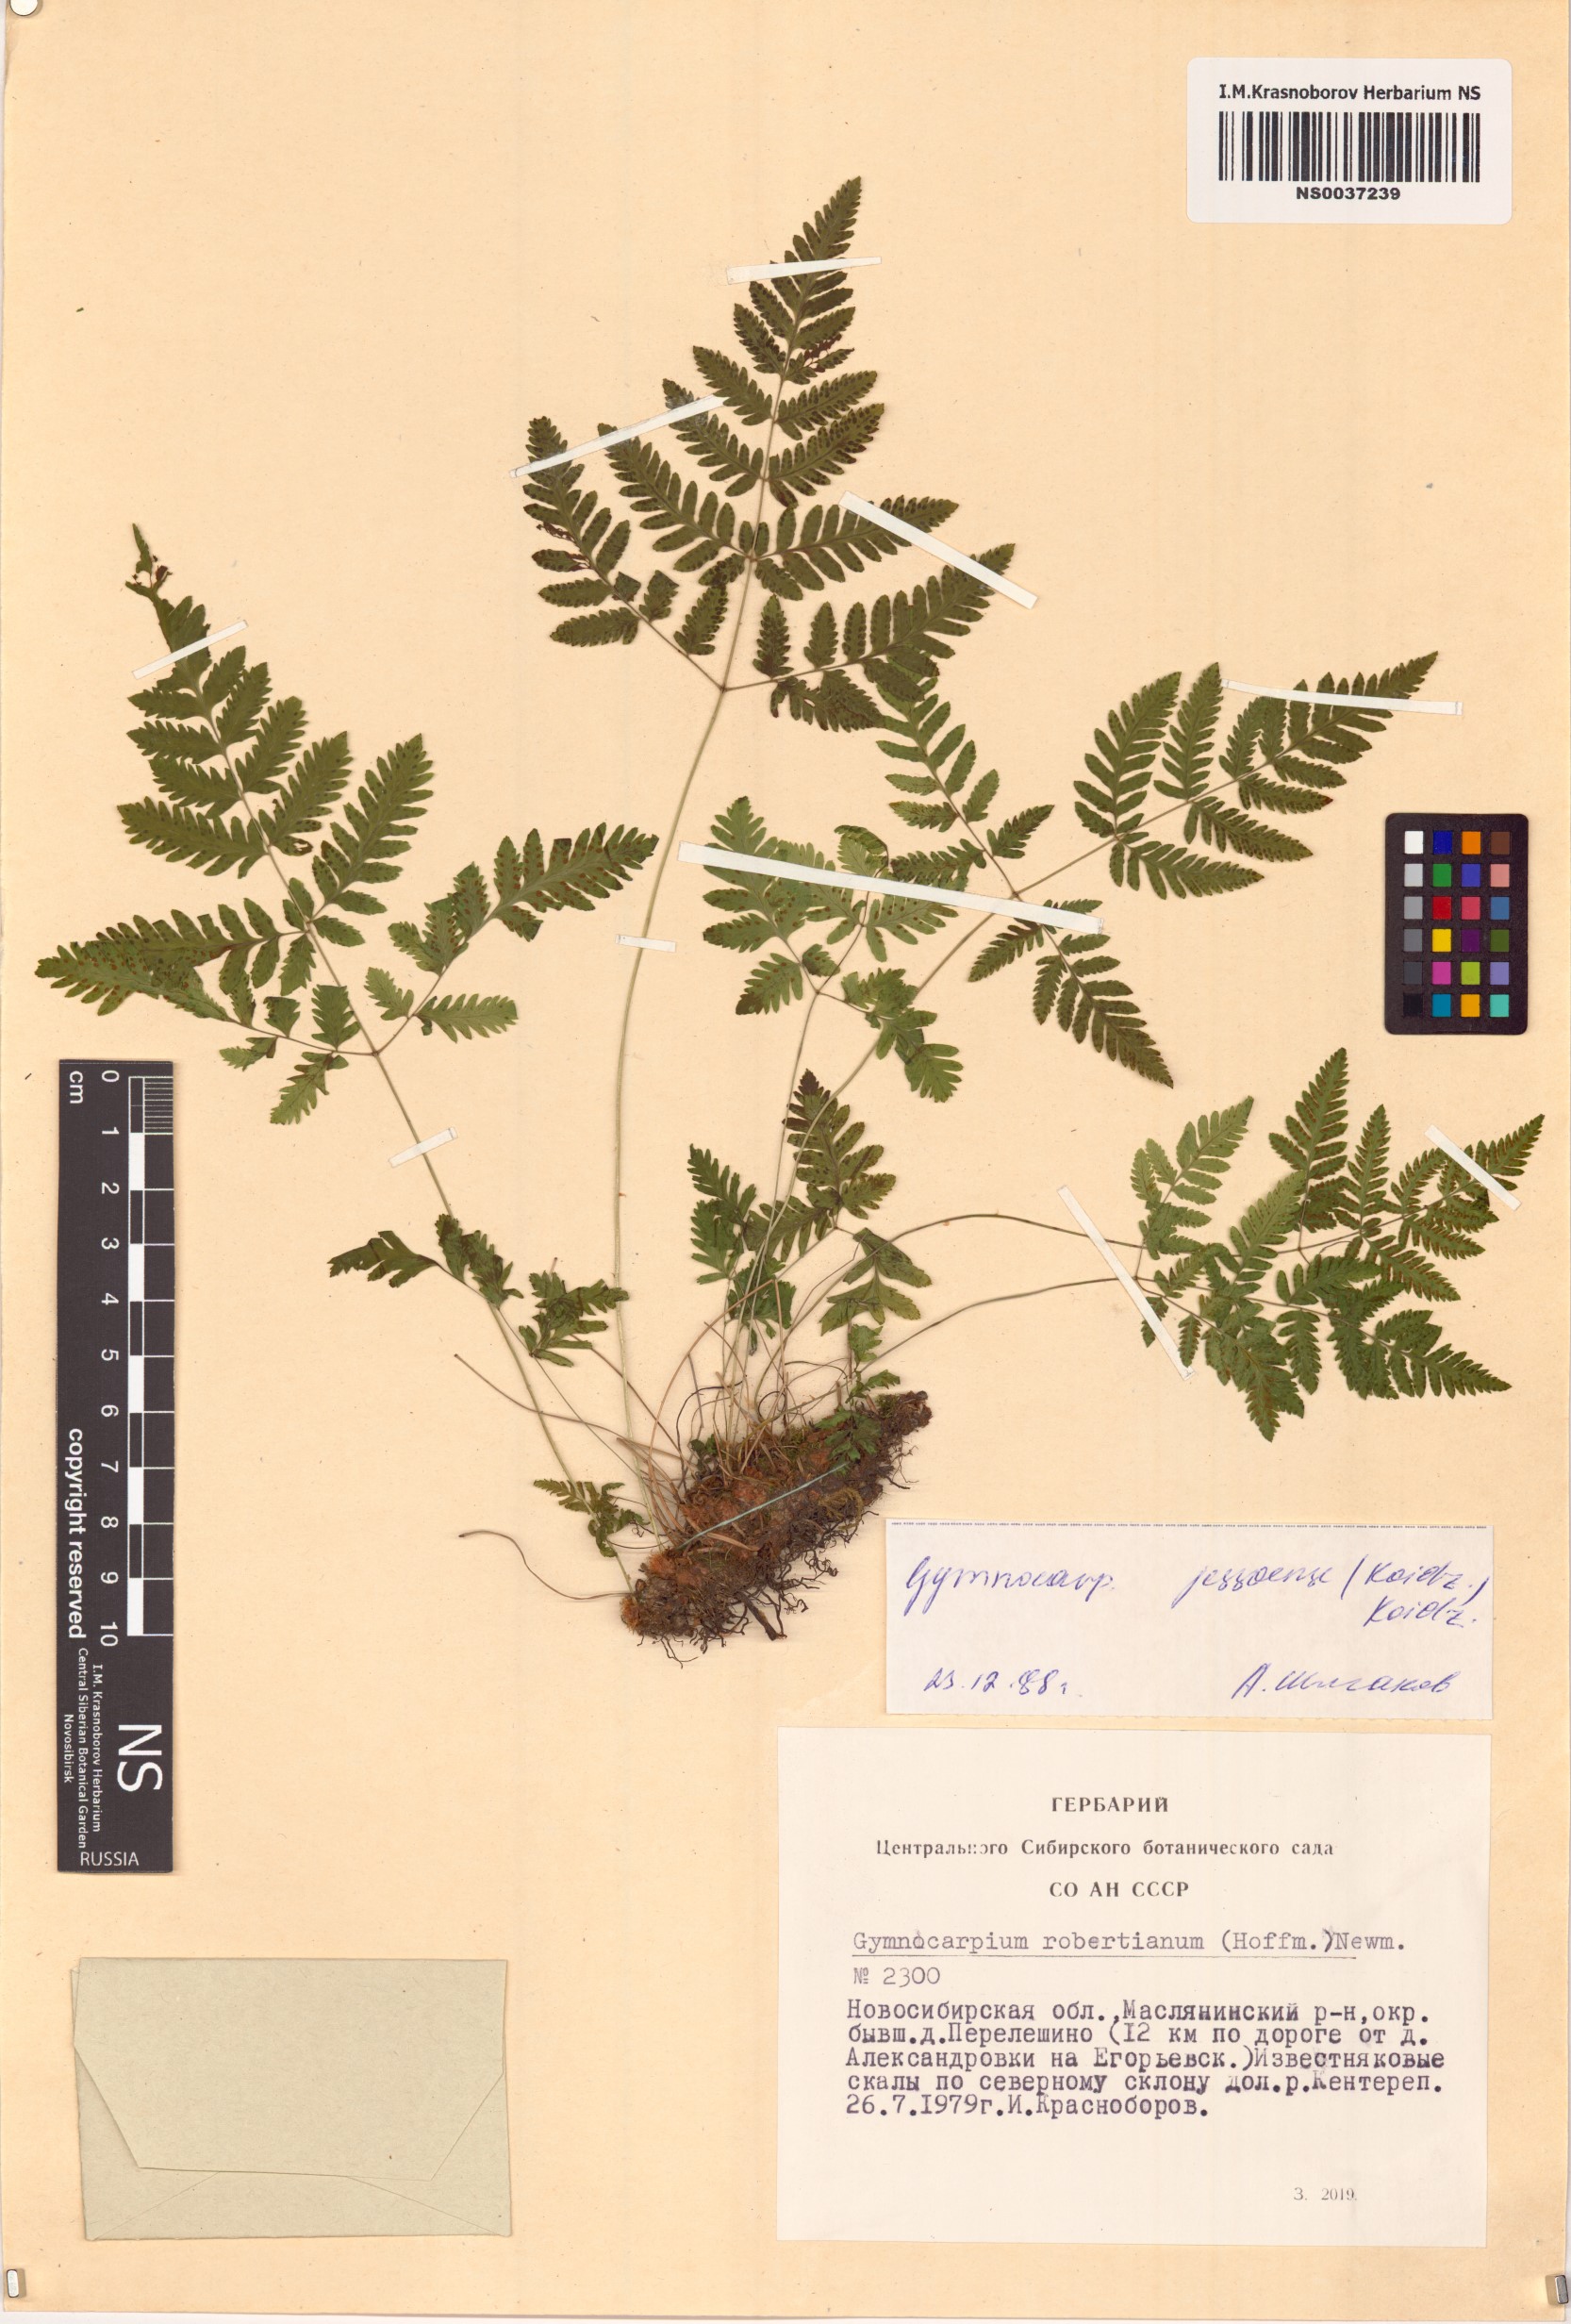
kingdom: Plantae
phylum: Tracheophyta
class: Polypodiopsida
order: Polypodiales
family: Cystopteridaceae
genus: Gymnocarpium
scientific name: Gymnocarpium jessoense
